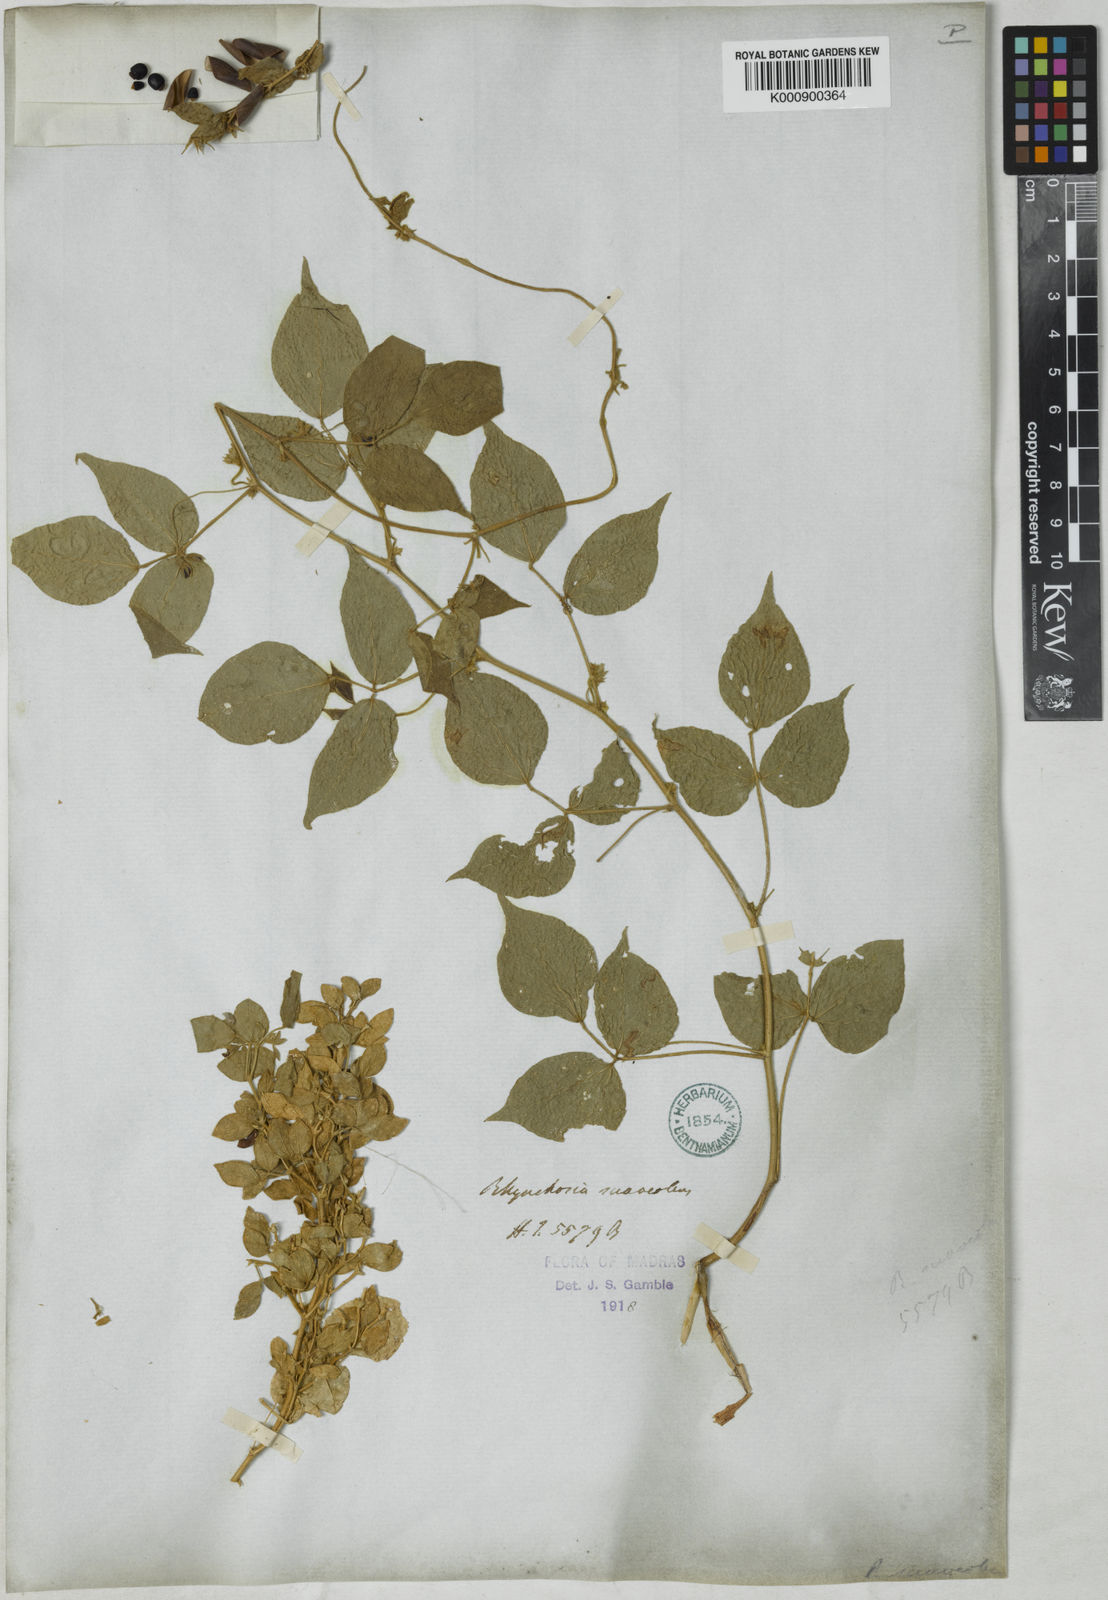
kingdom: Plantae
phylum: Tracheophyta
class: Magnoliopsida
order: Fabales
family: Fabaceae
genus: Rhynchosia
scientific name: Rhynchosia suaveolens
